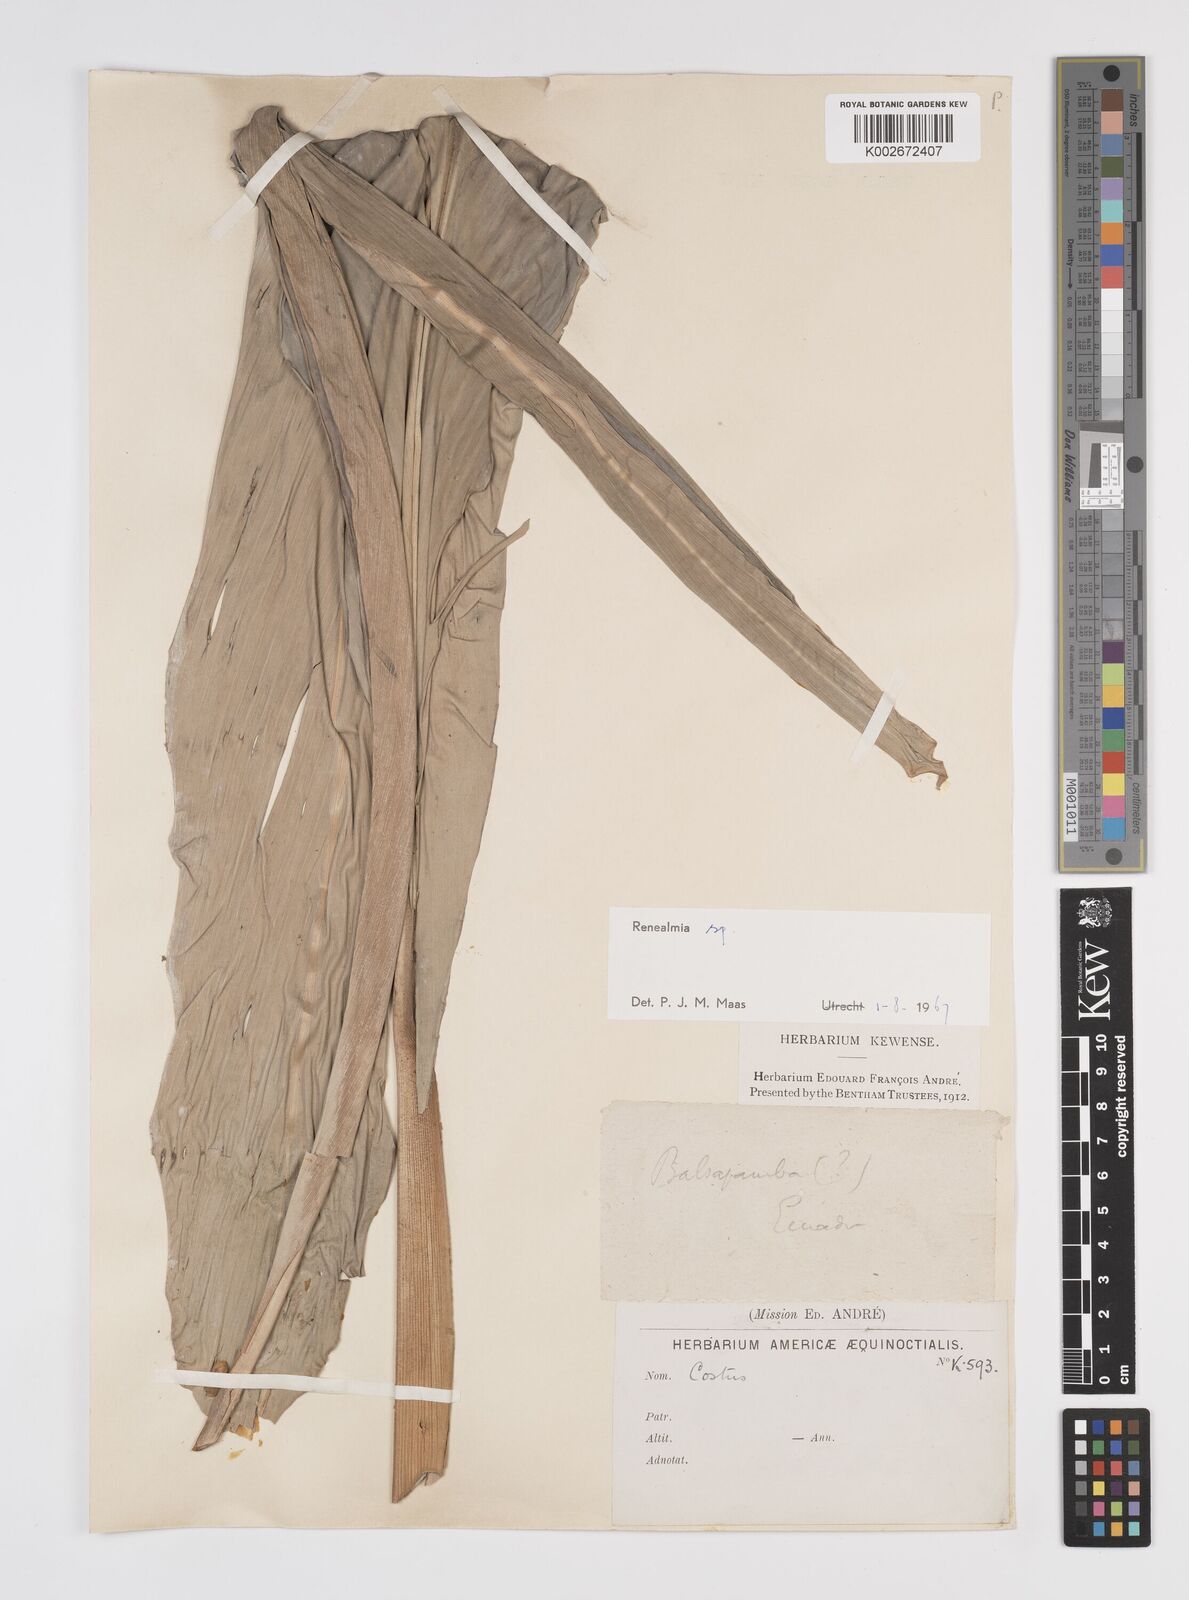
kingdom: Plantae
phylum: Tracheophyta
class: Liliopsida
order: Zingiberales
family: Zingiberaceae
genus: Renealmia
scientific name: Renealmia
